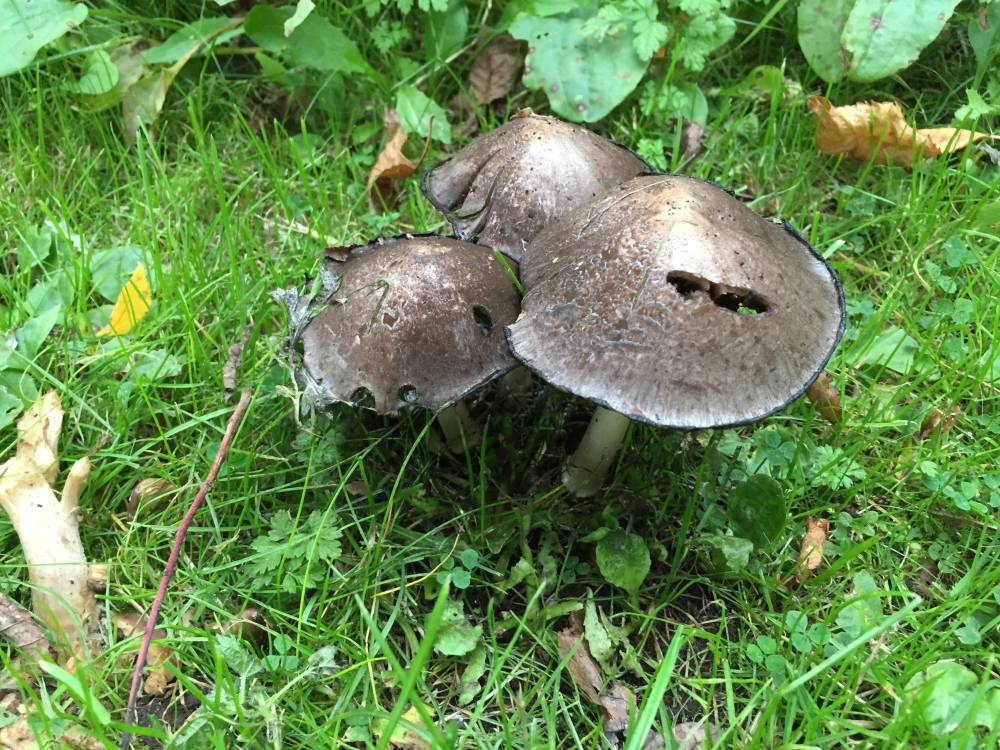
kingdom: Fungi
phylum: Basidiomycota
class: Agaricomycetes
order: Agaricales
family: Psathyrellaceae
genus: Coprinopsis
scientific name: Coprinopsis atramentaria
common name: almindelig blækhat
